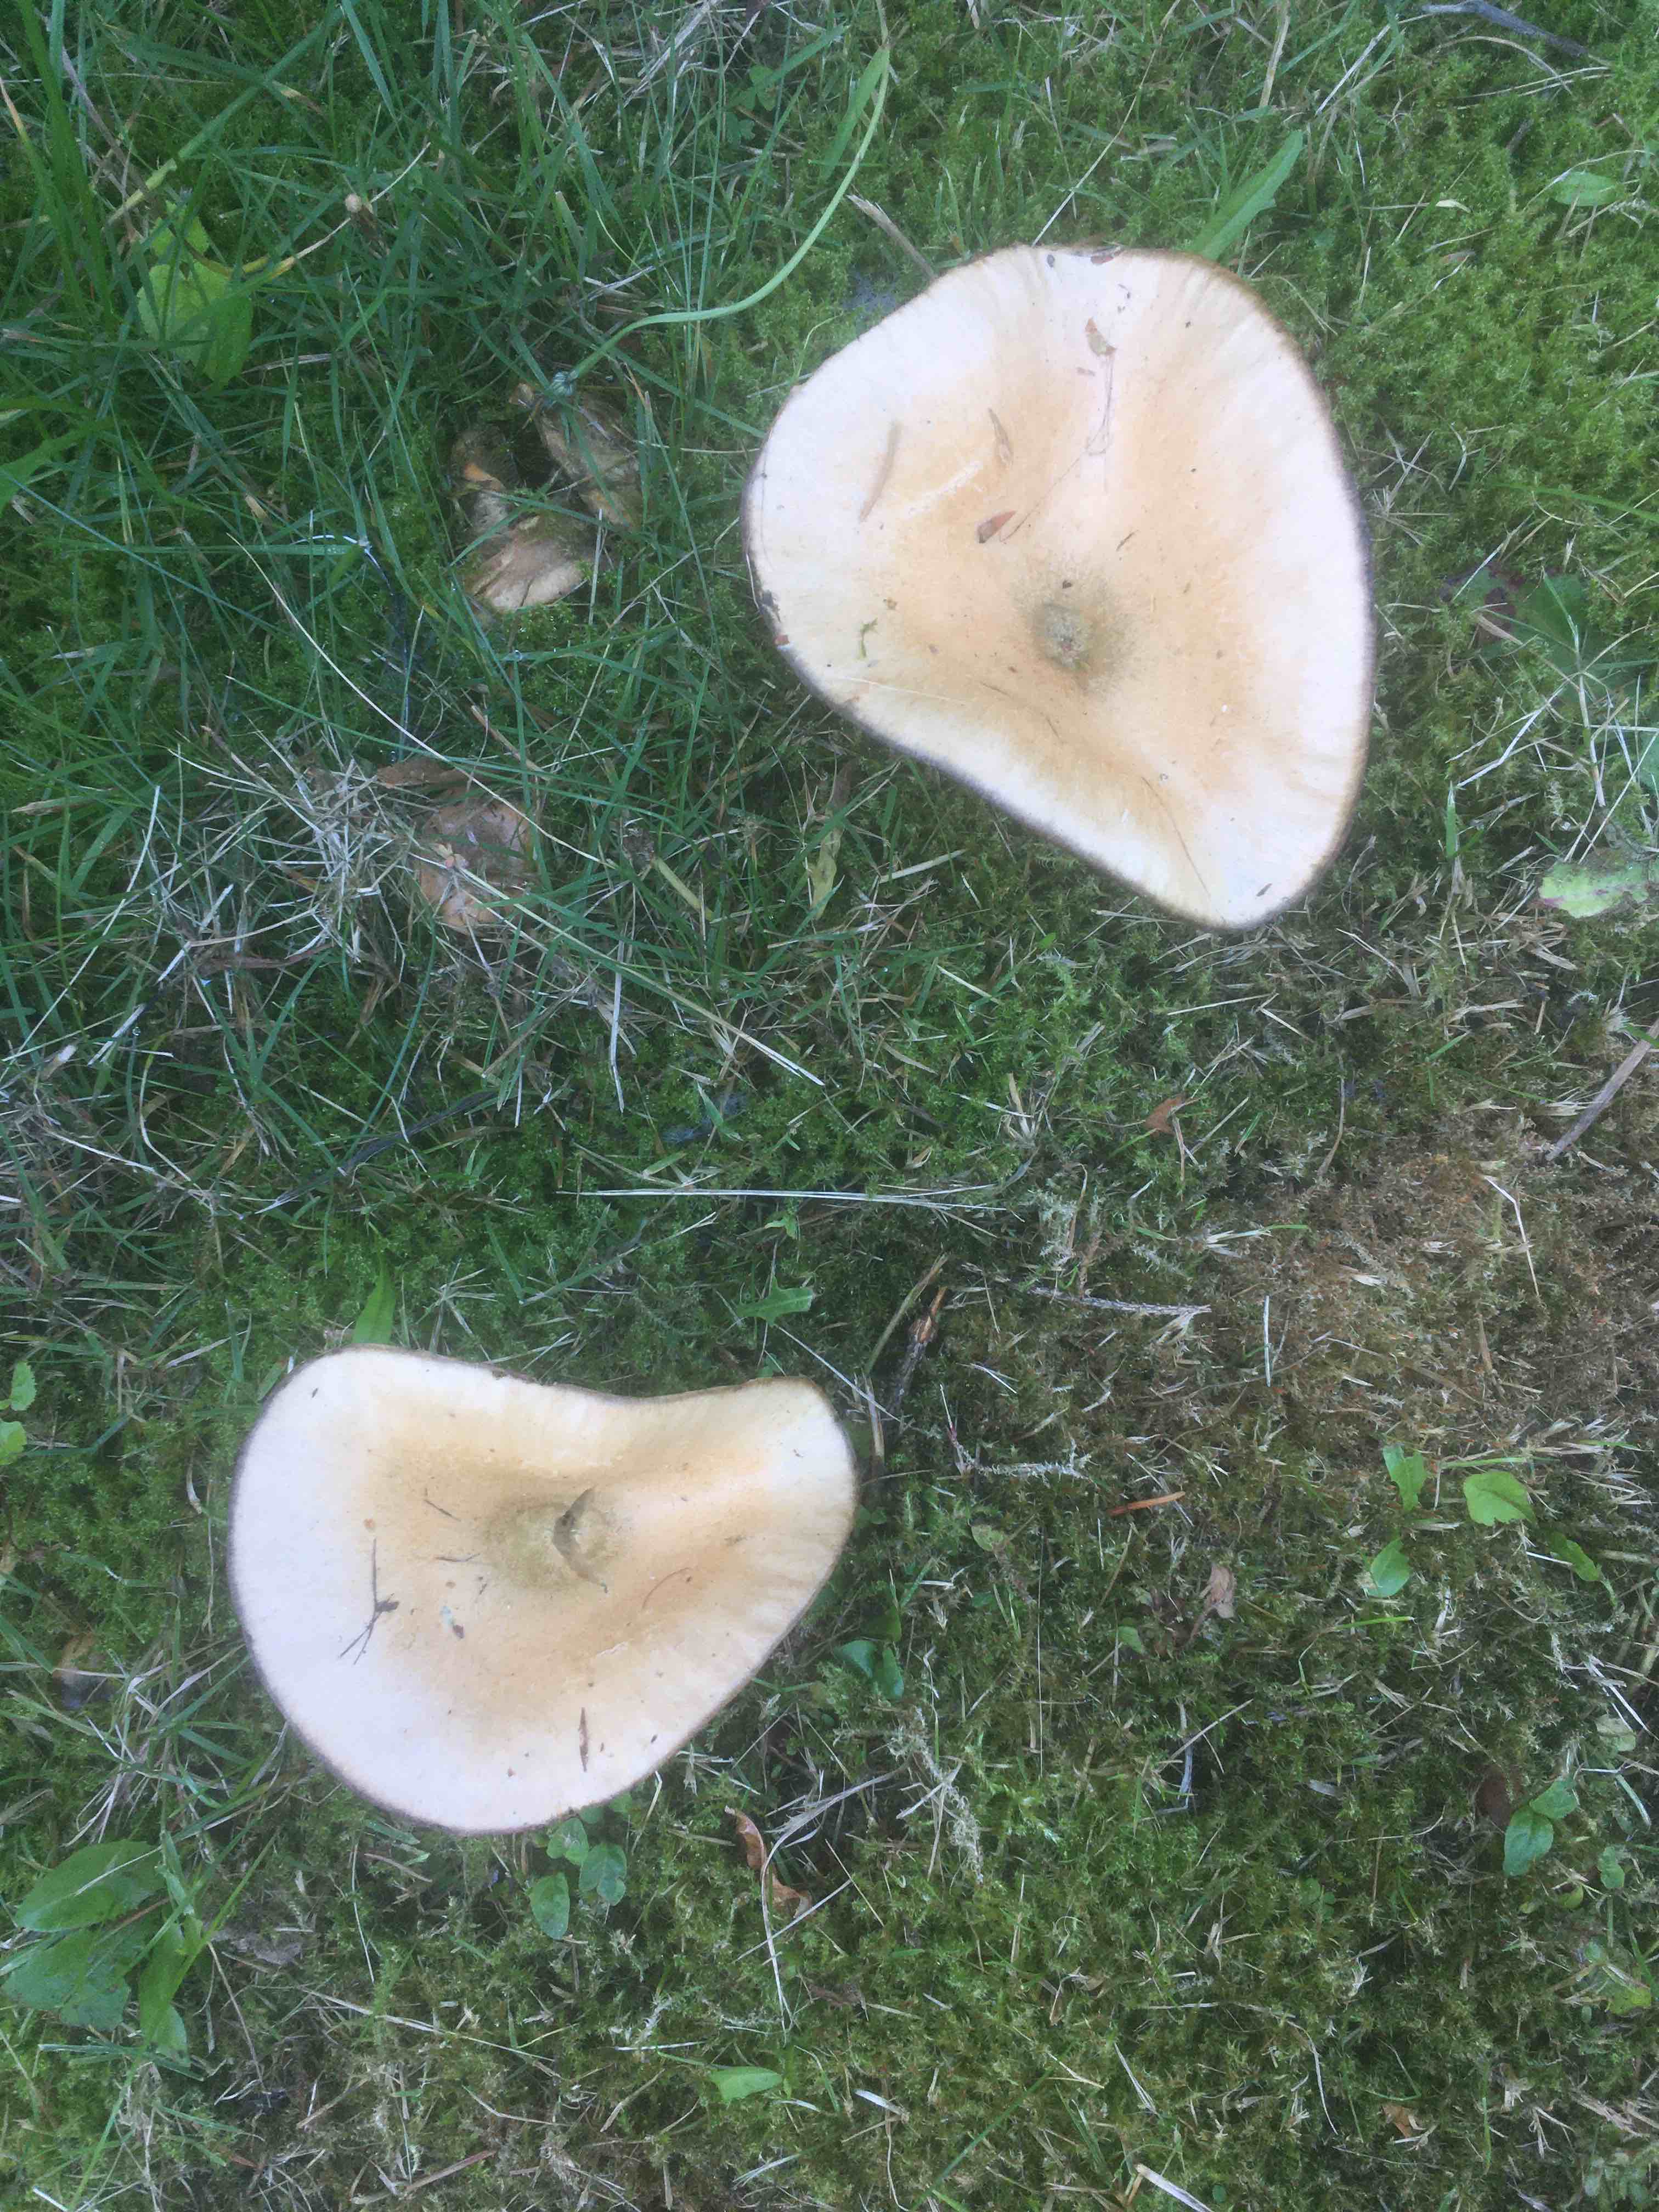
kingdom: Fungi
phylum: Basidiomycota
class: Agaricomycetes
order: Russulales
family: Russulaceae
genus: Lactarius
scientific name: Lactarius deterrimus
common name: gran-mælkehat
